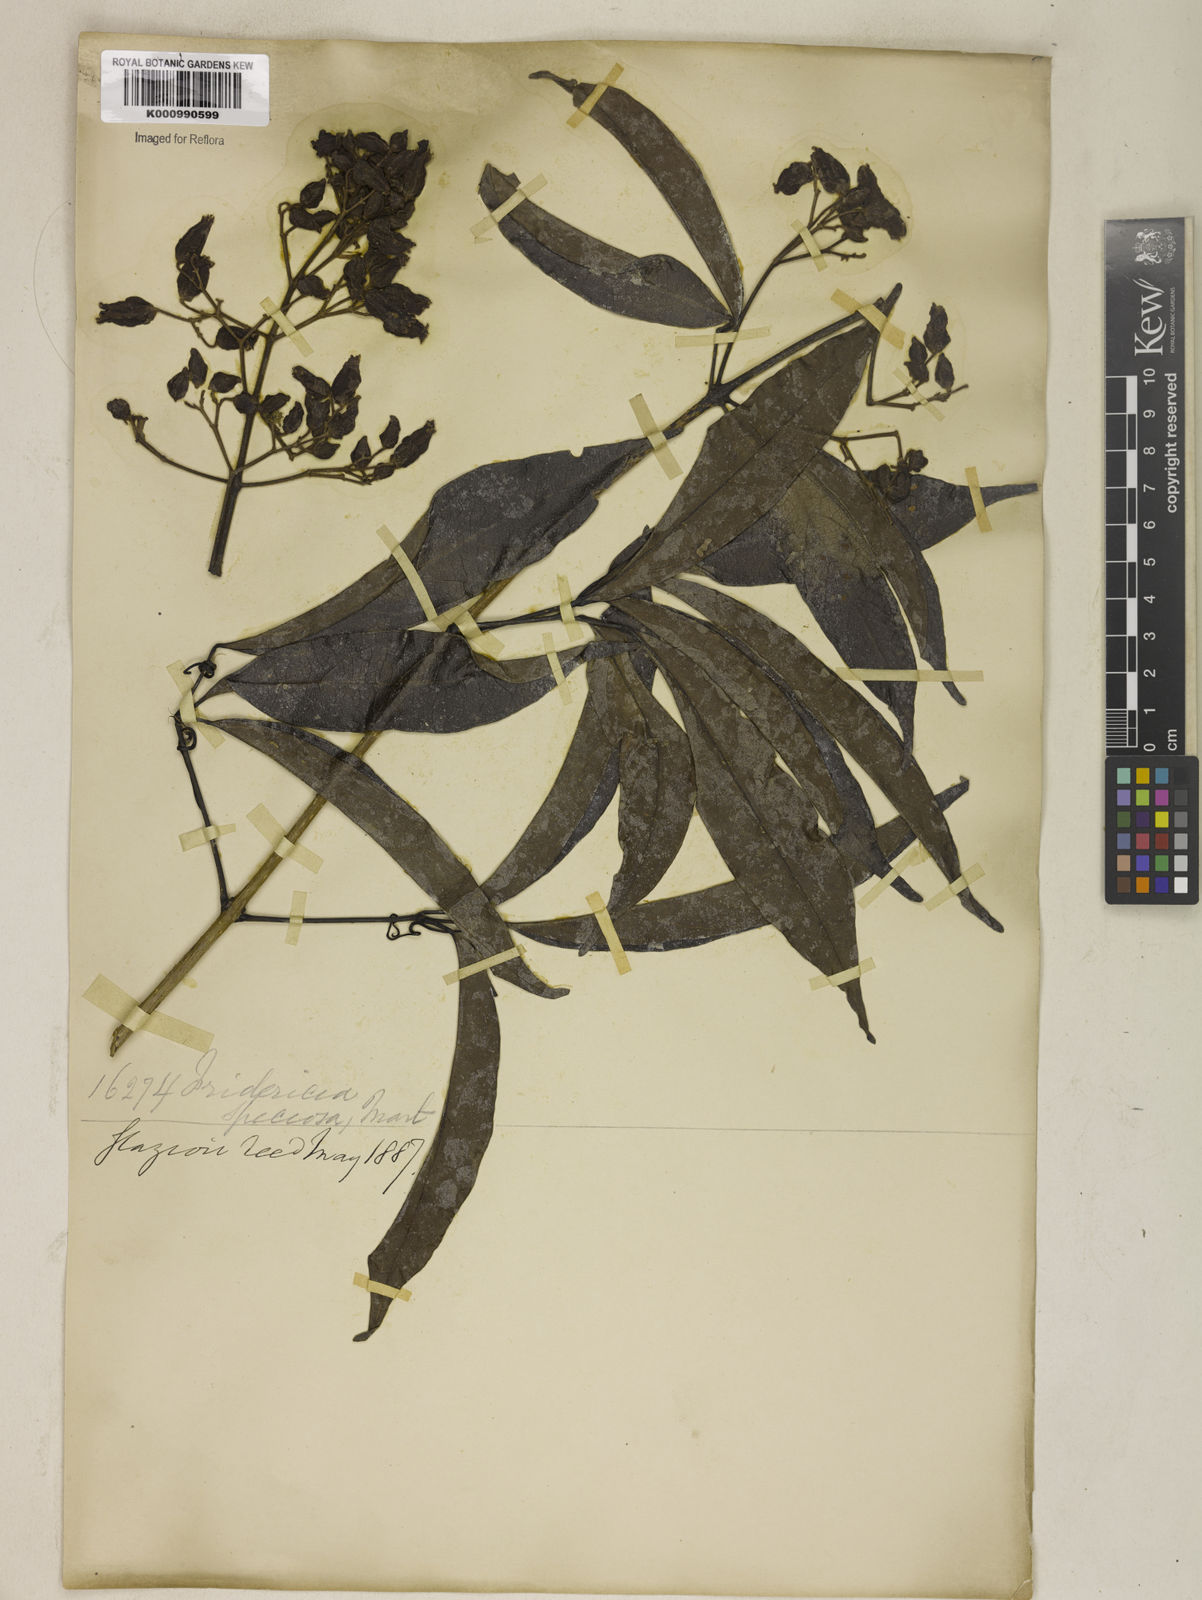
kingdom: Plantae
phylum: Tracheophyta
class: Magnoliopsida
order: Lamiales
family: Bignoniaceae
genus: Fridericia
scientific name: Fridericia speciosa
